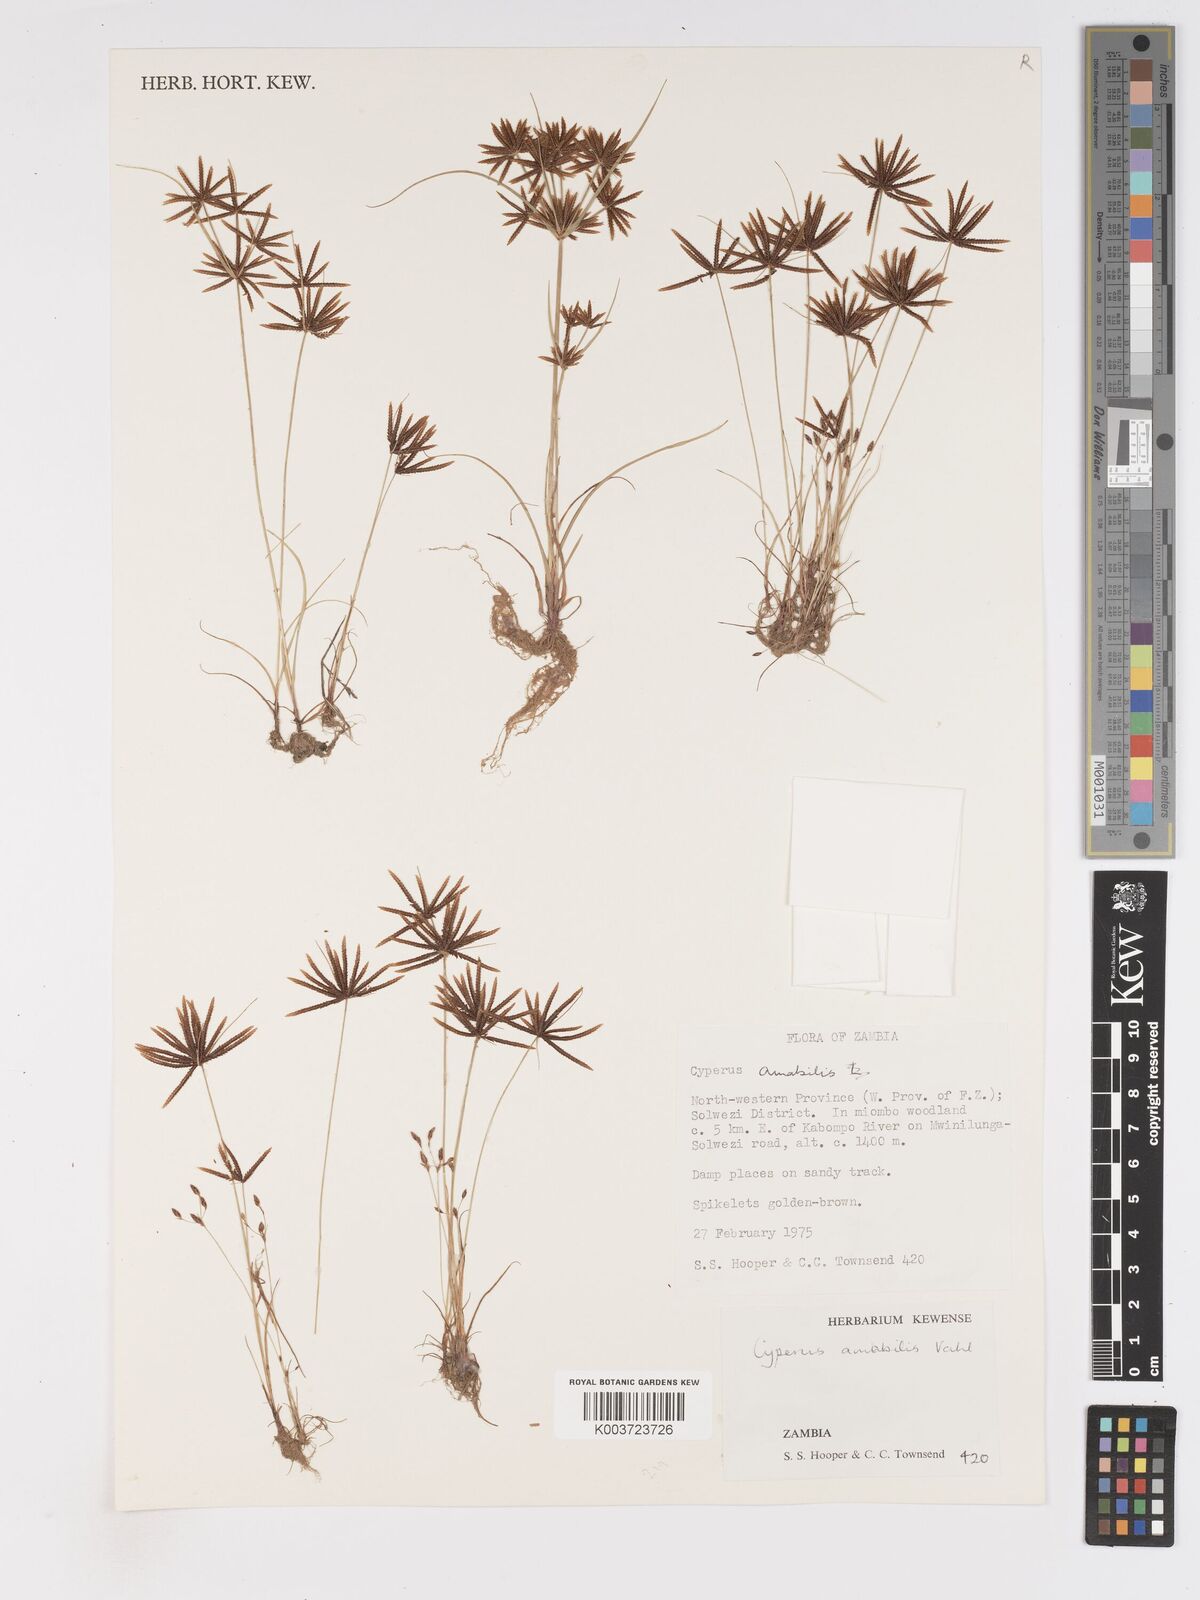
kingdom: Plantae
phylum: Tracheophyta
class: Liliopsida
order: Poales
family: Cyperaceae
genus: Cyperus
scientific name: Cyperus amabilis
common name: Foothill flat sedge
